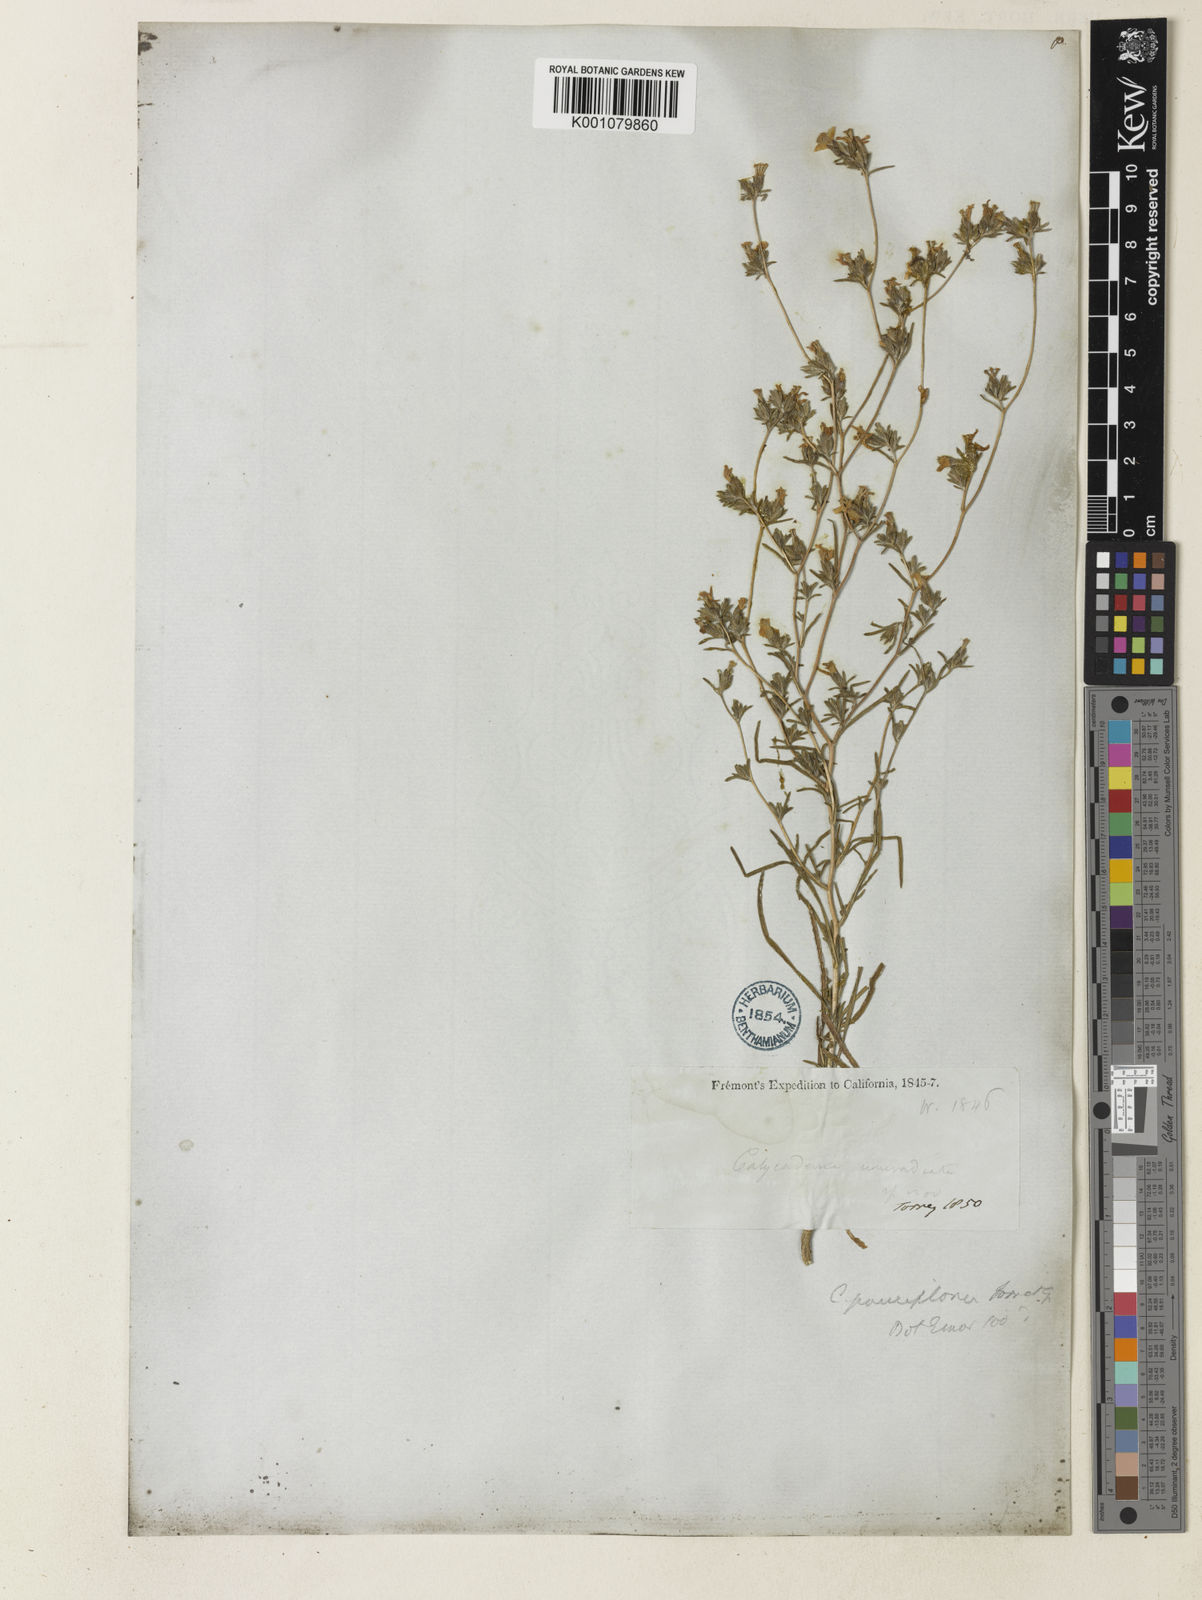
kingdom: Plantae
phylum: Tracheophyta
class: Magnoliopsida
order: Asterales
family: Asteraceae
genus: Calycadenia
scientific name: Calycadenia pauciflora
